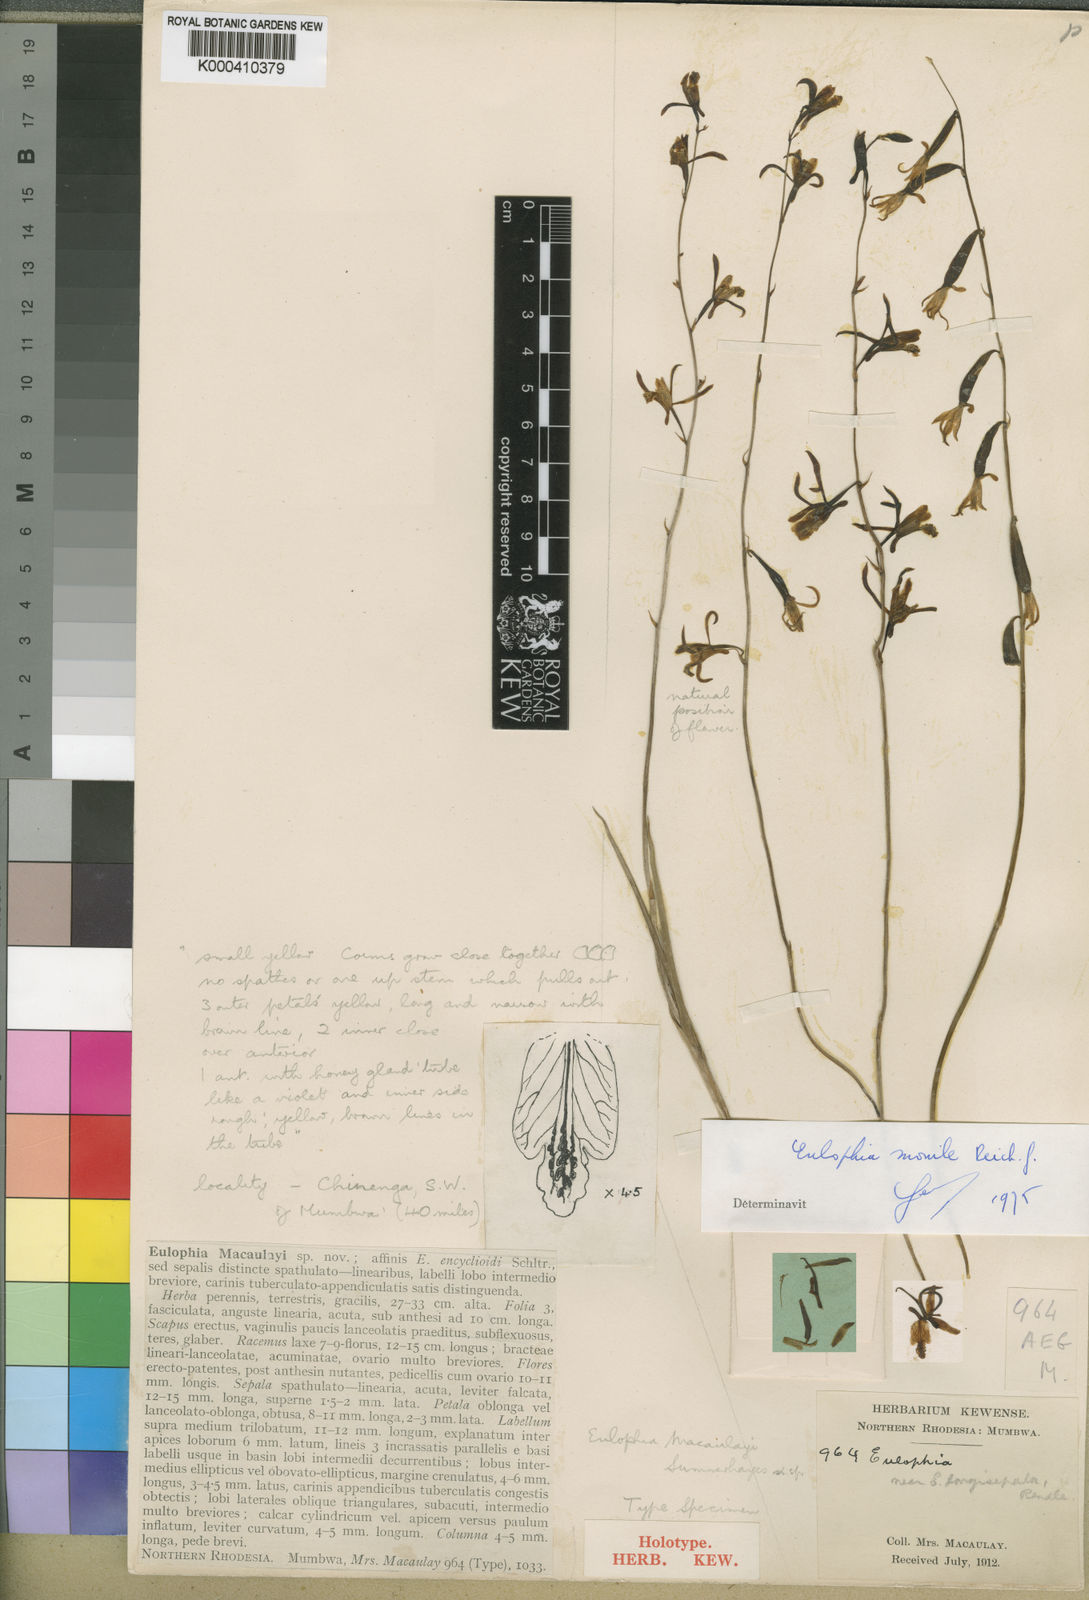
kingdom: Plantae
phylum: Tracheophyta
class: Liliopsida
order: Asparagales
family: Orchidaceae
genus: Eulophia
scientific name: Eulophia venulosa
